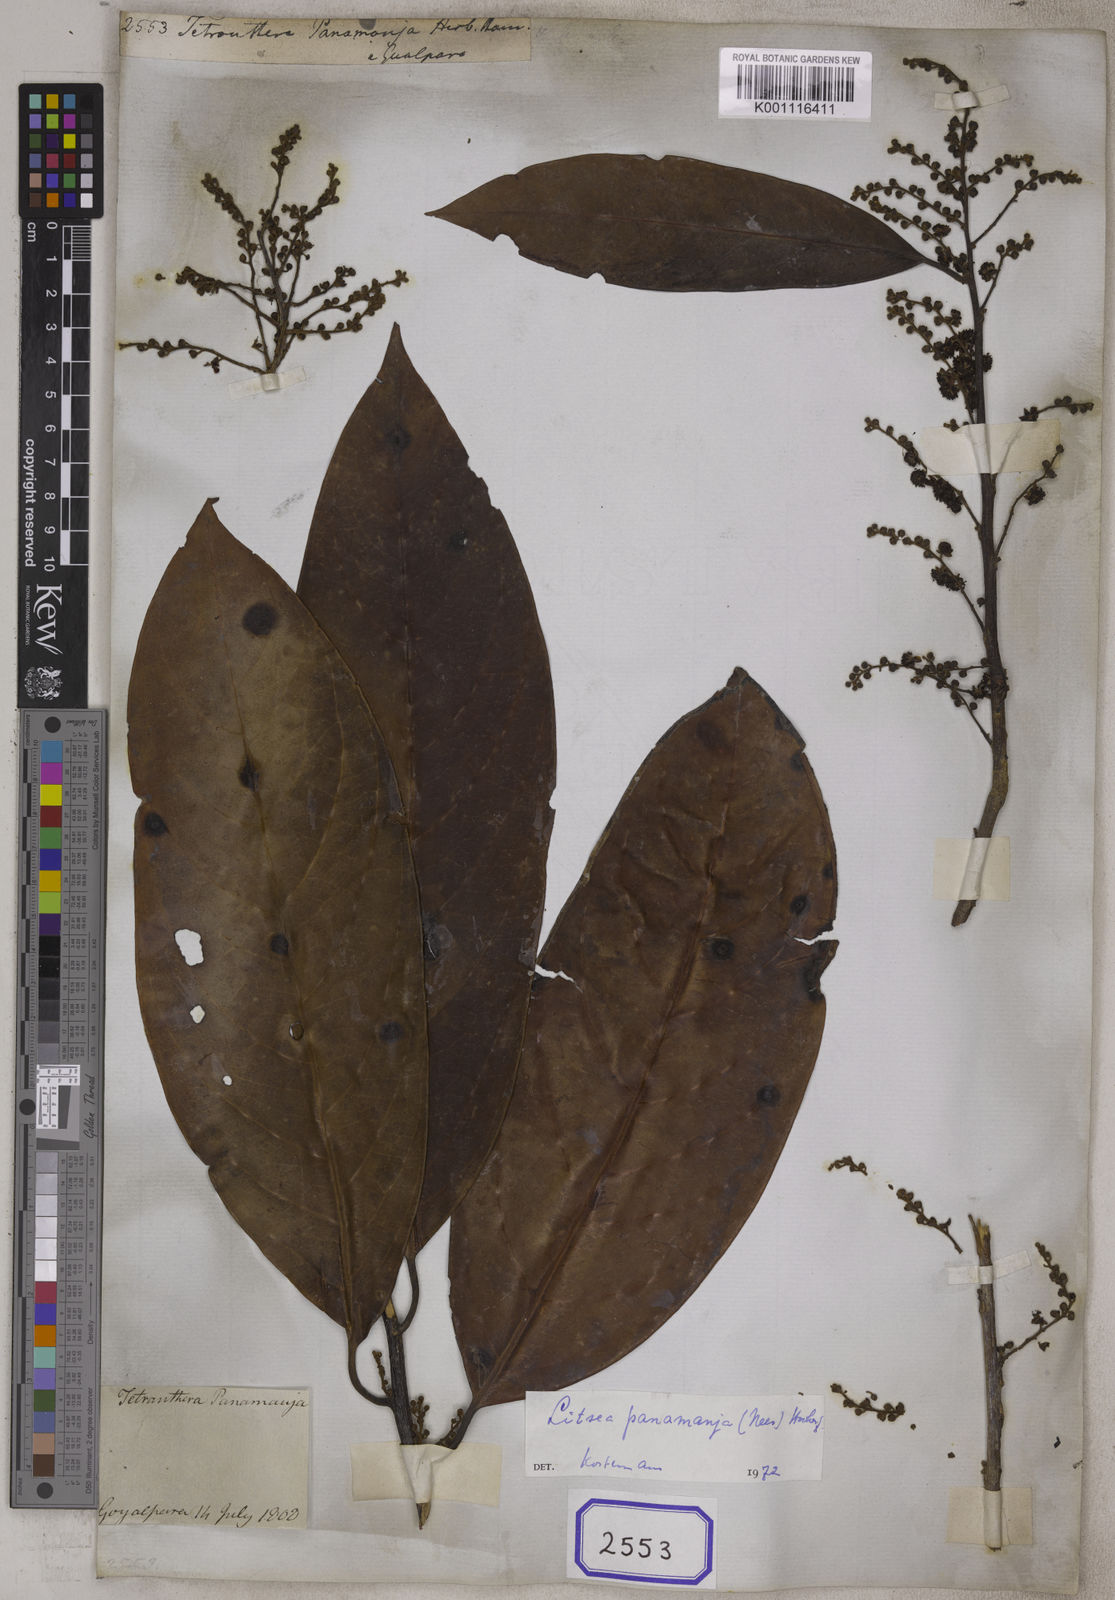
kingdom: Plantae
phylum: Tracheophyta
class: Magnoliopsida
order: Laurales
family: Lauraceae
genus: Litsea
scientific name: Litsea panamanja
